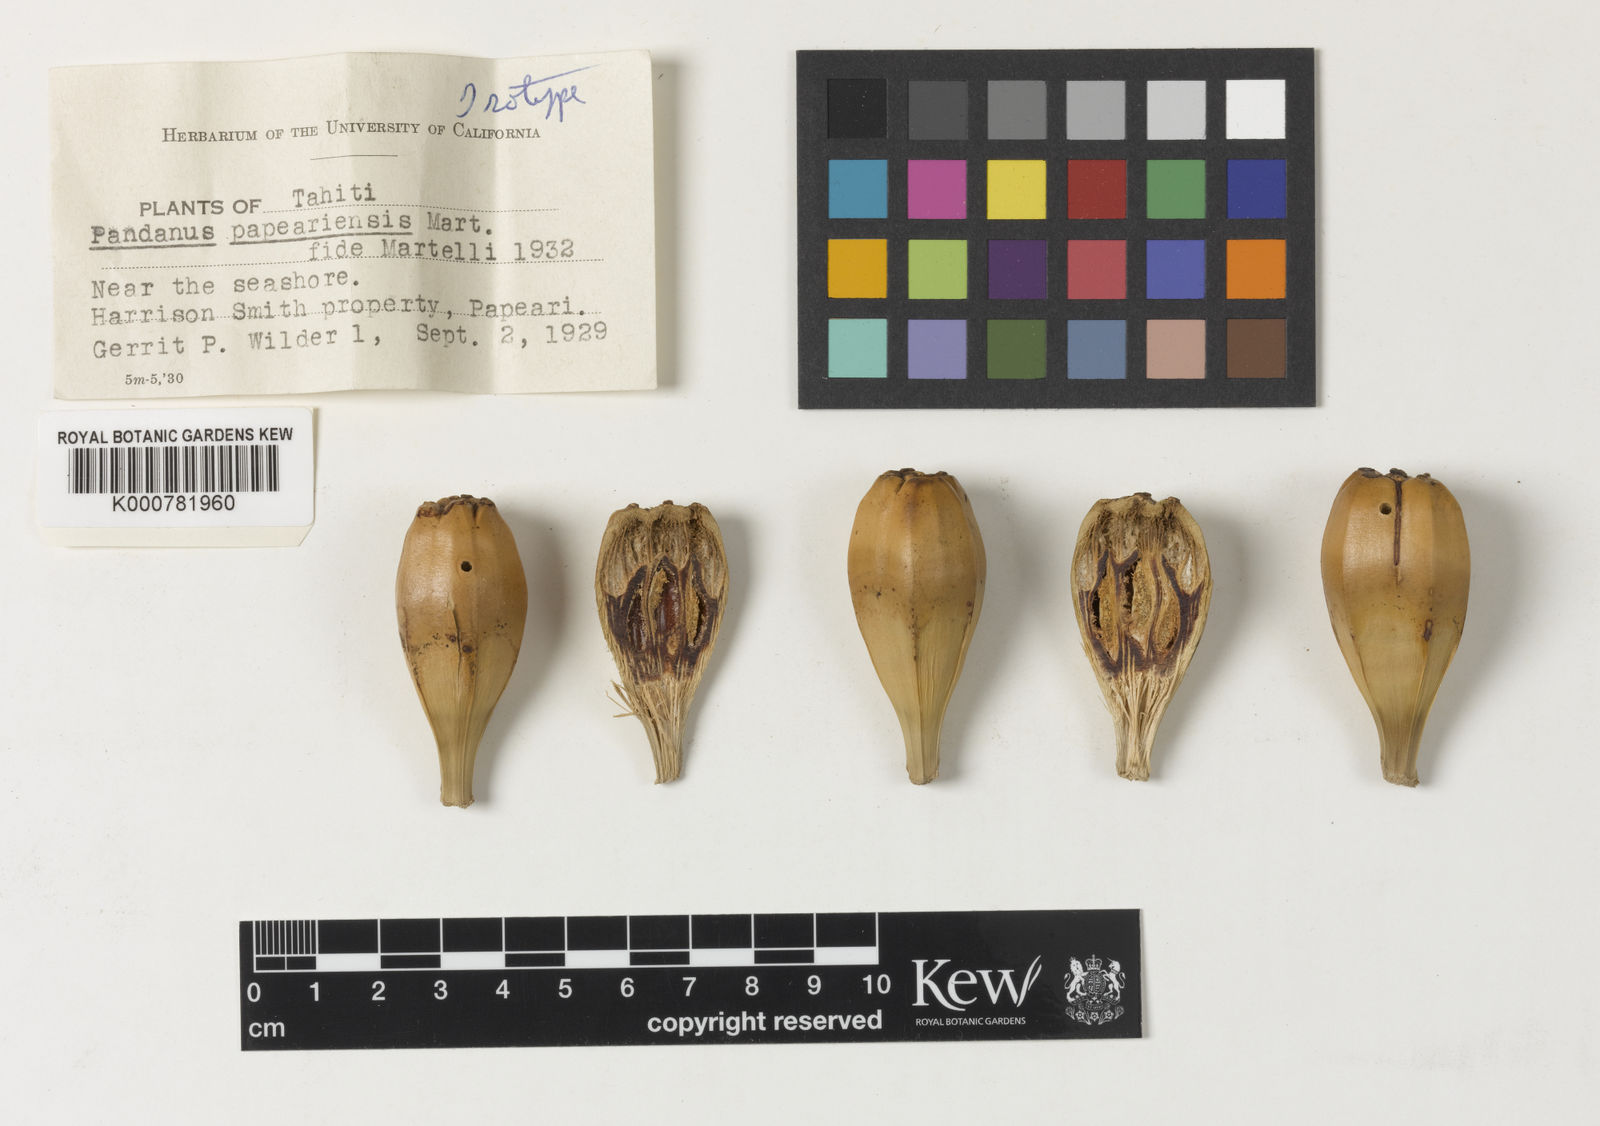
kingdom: Plantae
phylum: Tracheophyta
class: Liliopsida
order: Pandanales
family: Pandanaceae
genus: Pandanus
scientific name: Pandanus tectorius
